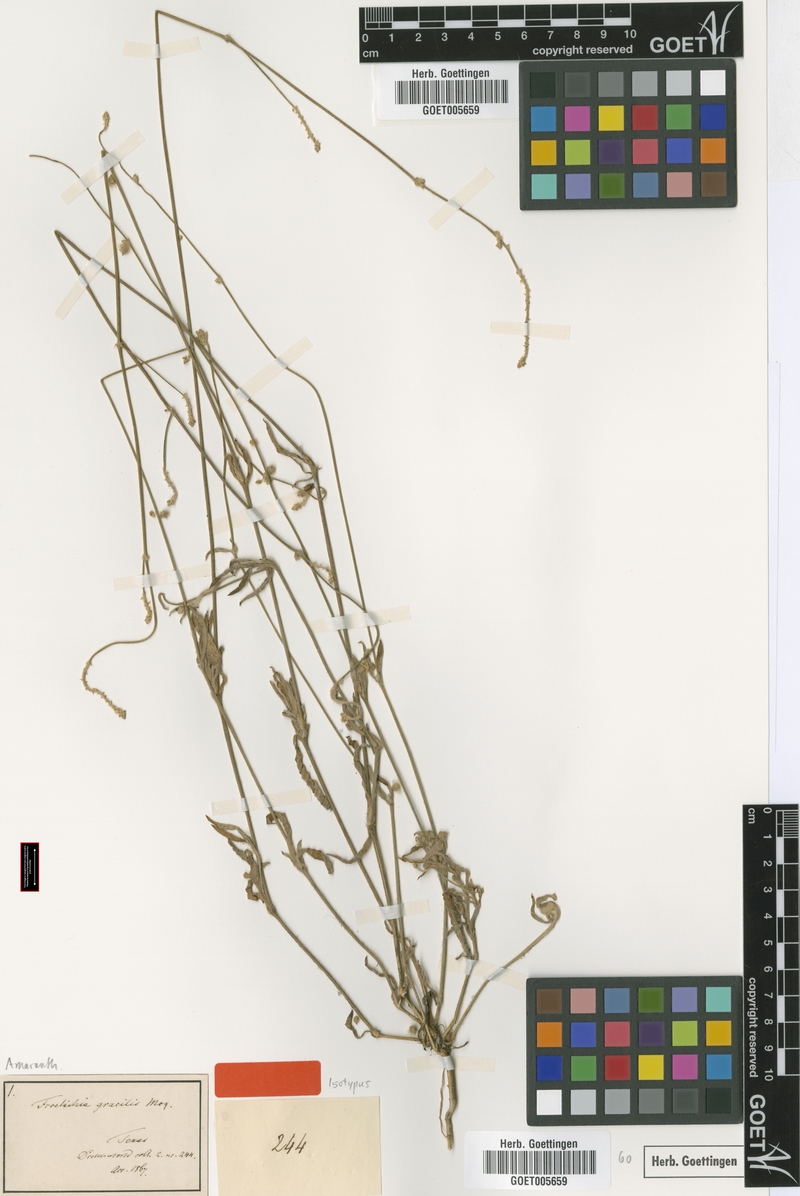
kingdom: Plantae
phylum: Tracheophyta
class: Magnoliopsida
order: Caryophyllales
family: Amaranthaceae
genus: Froelichia
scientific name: Froelichia gracilis
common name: Slender cottonweed
